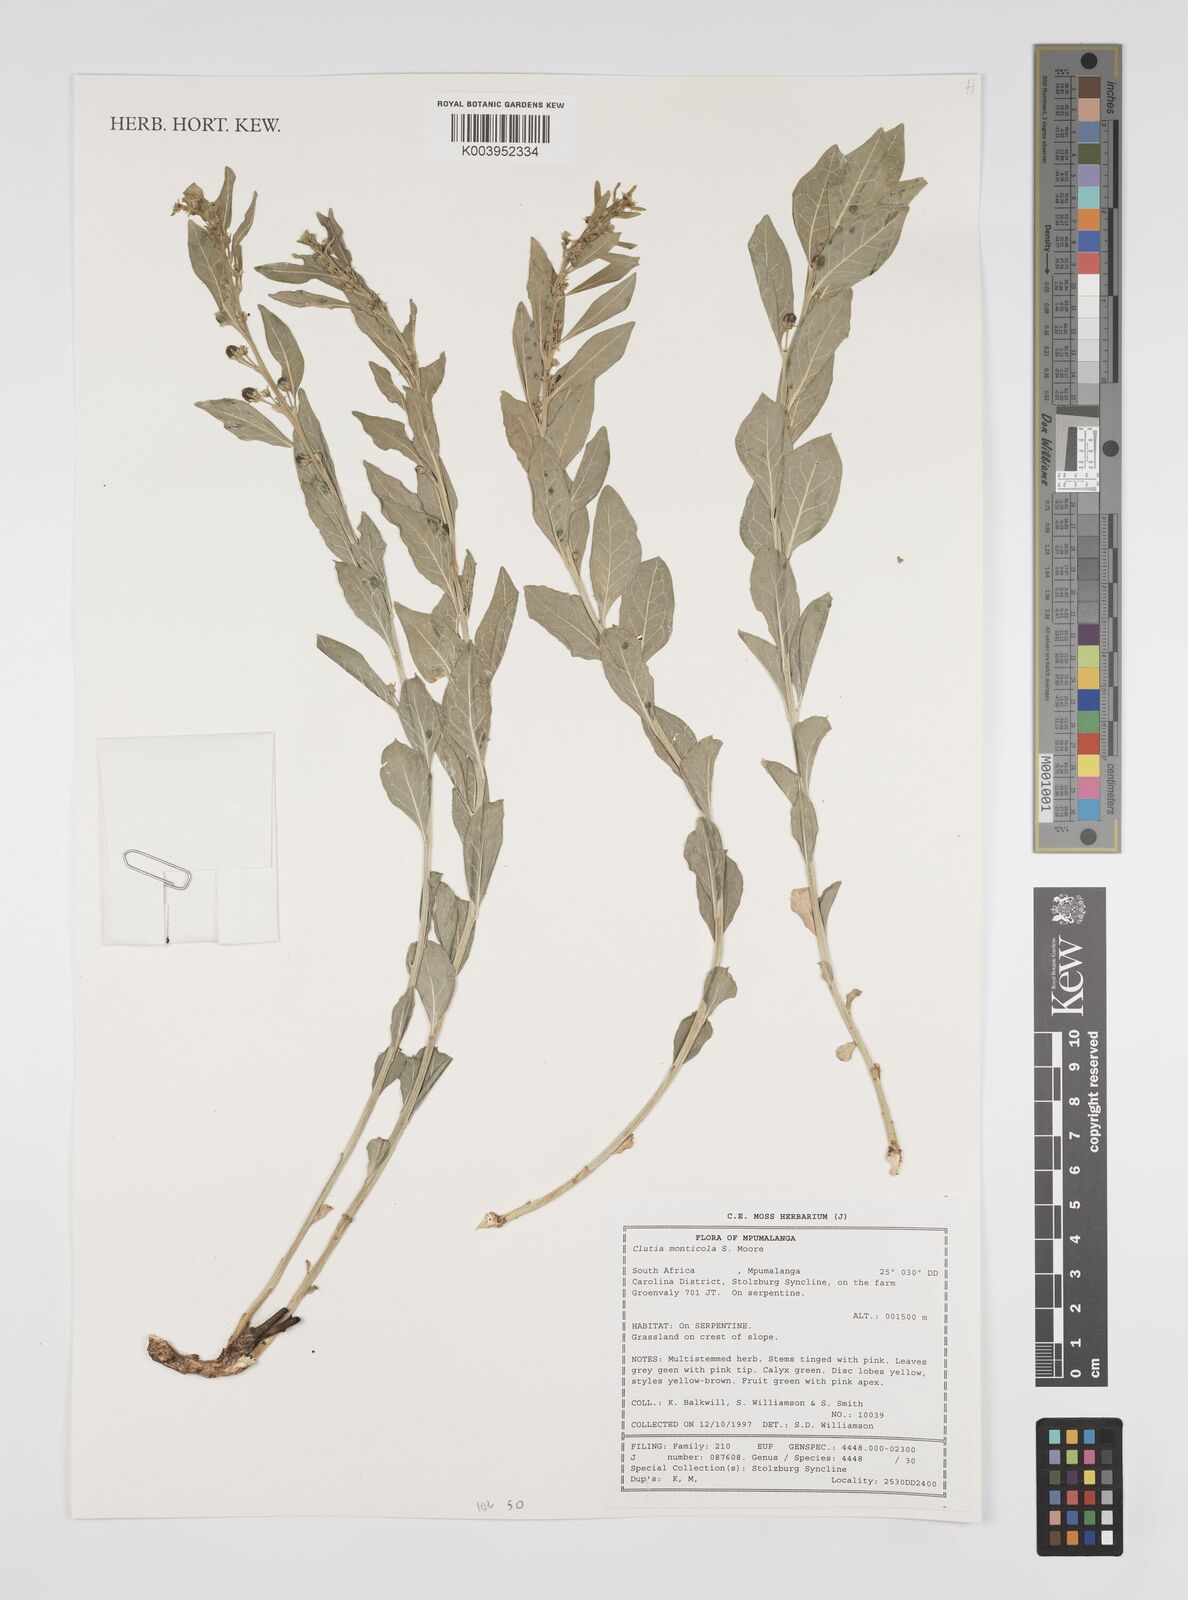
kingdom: Plantae
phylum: Tracheophyta
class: Magnoliopsida
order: Malpighiales
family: Peraceae
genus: Clutia
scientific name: Clutia monticola
